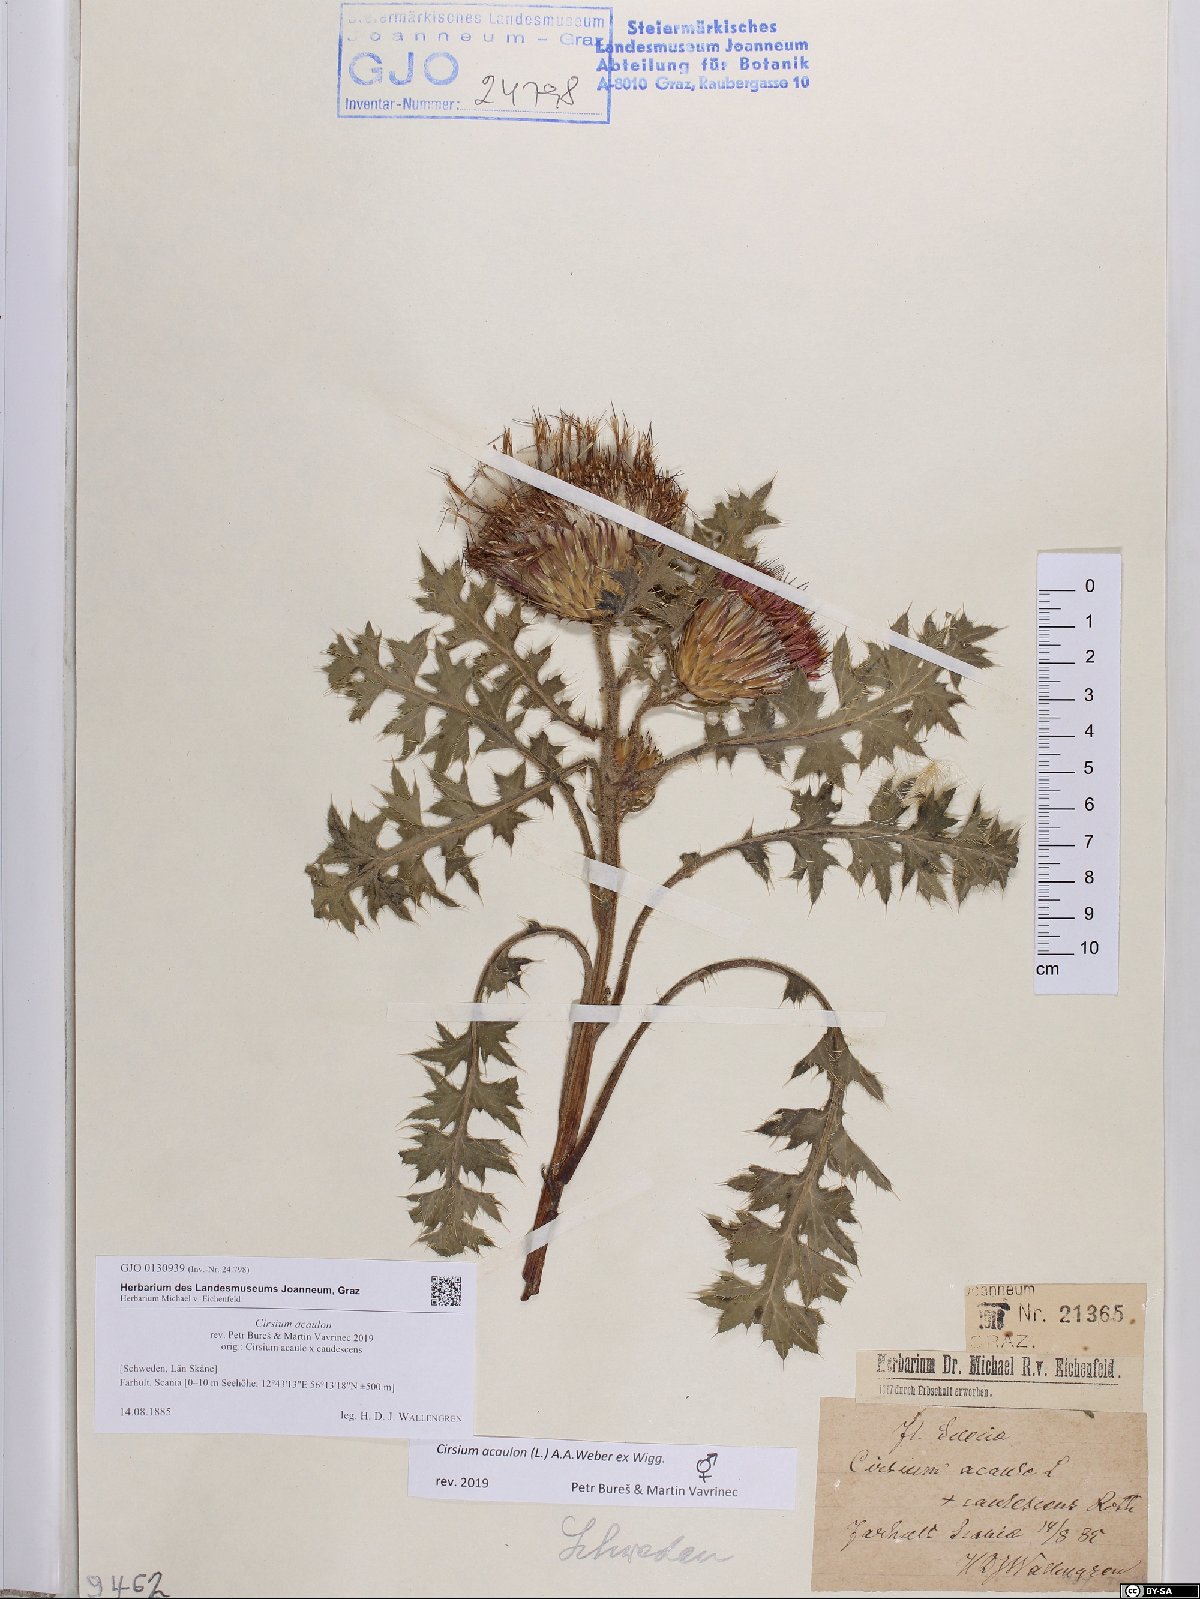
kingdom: Plantae
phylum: Tracheophyta
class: Magnoliopsida
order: Asterales
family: Asteraceae
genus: Cirsium
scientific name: Cirsium acaulon
